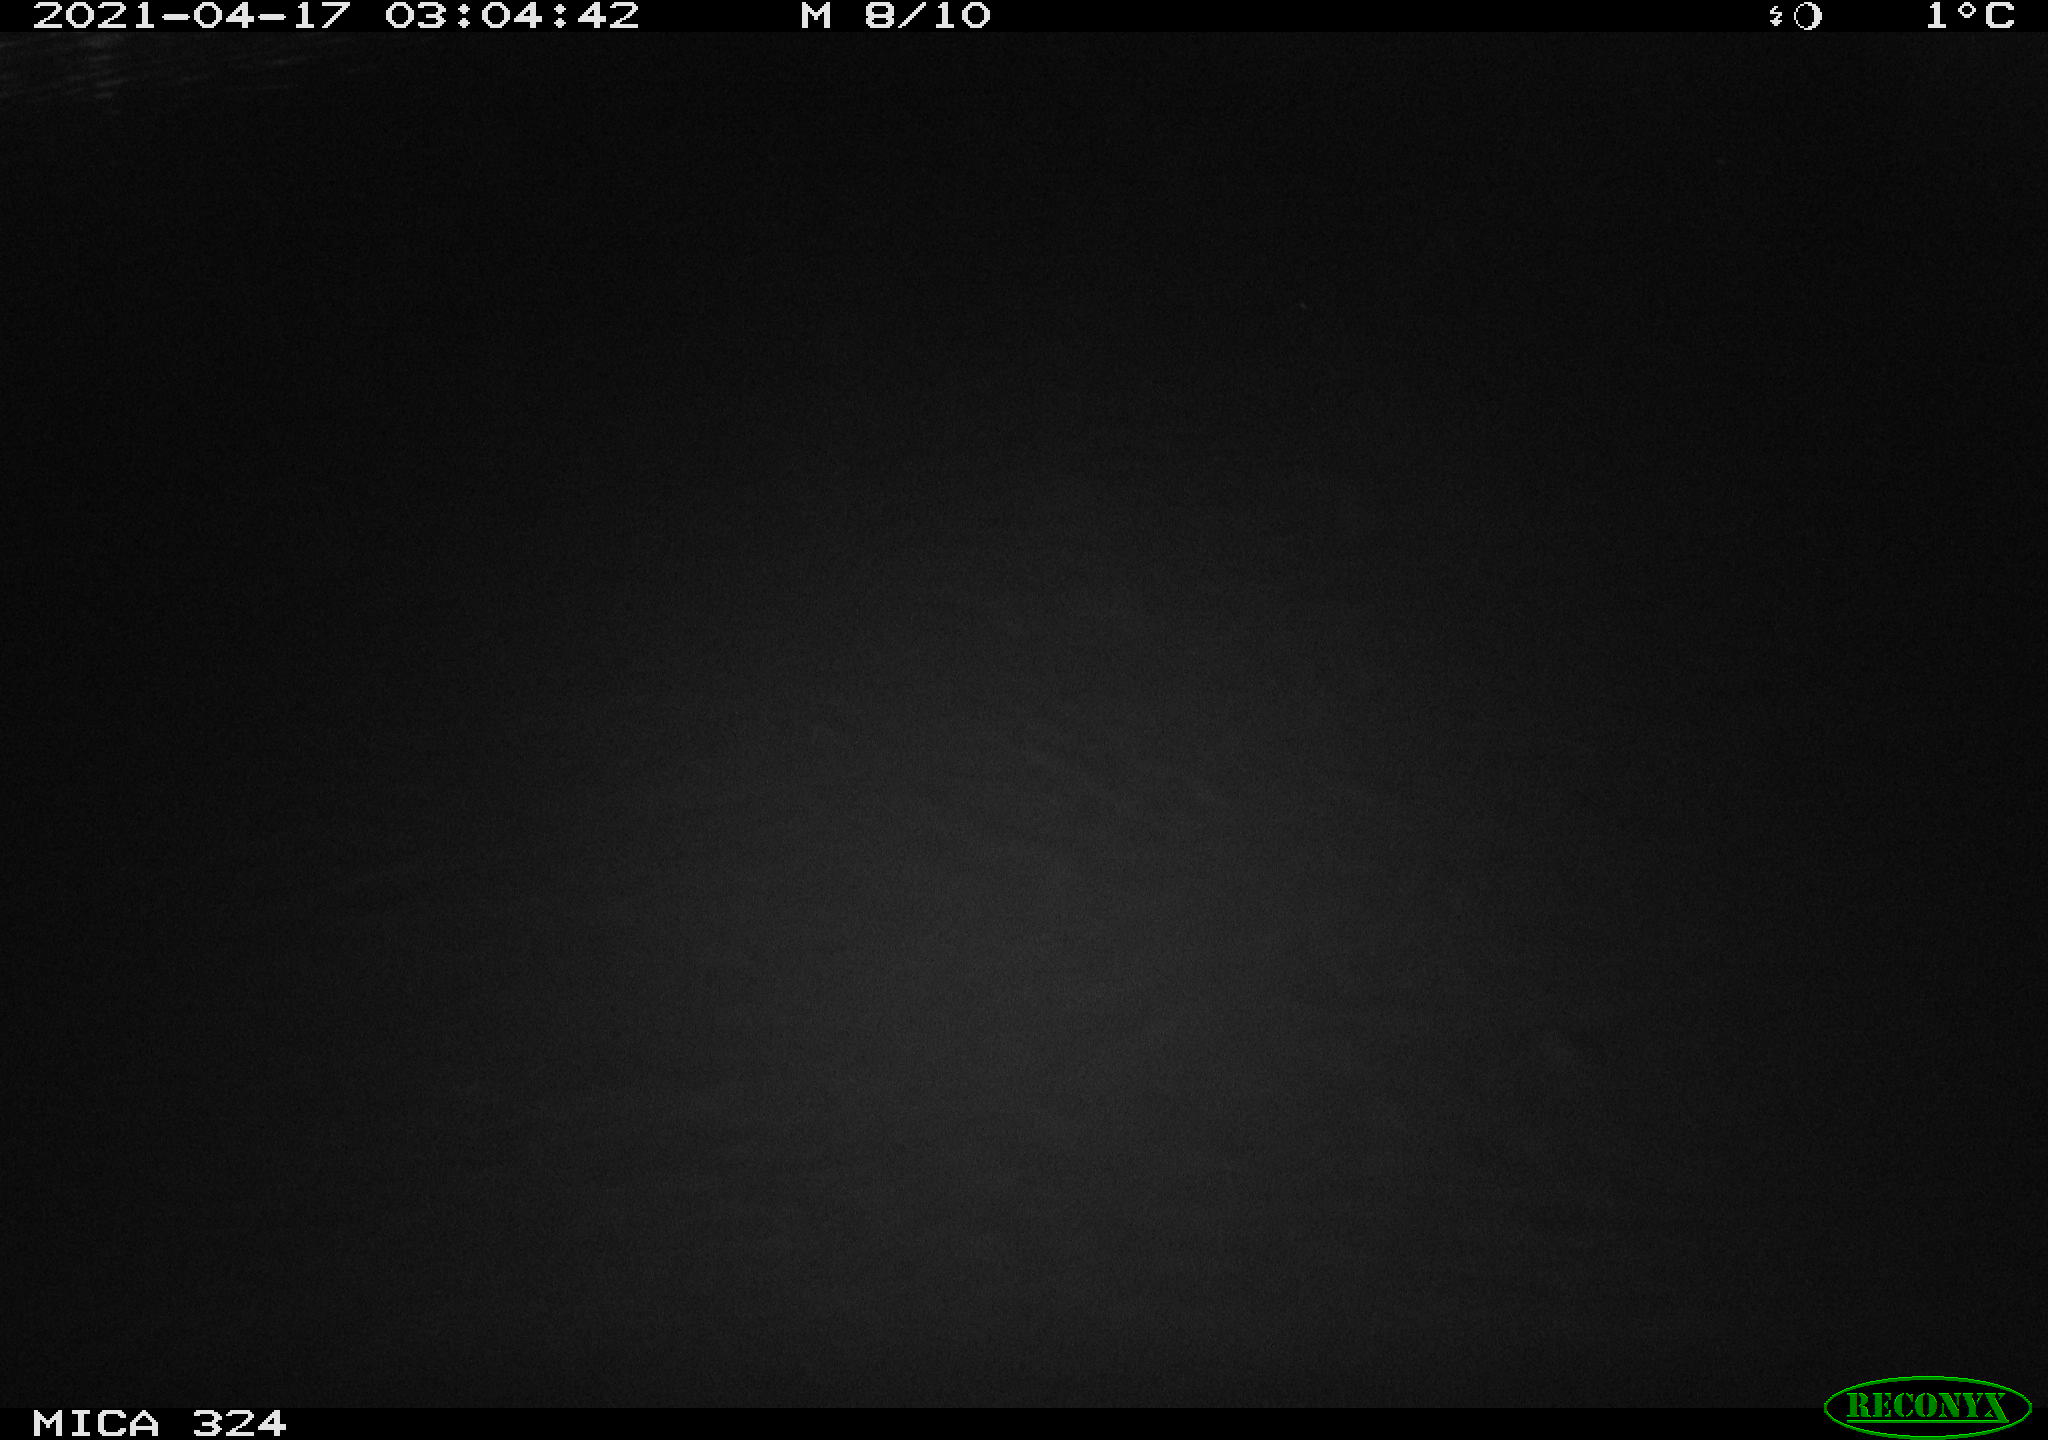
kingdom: Animalia
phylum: Chordata
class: Aves
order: Anseriformes
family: Anatidae
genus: Anas
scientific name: Anas platyrhynchos
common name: Mallard
